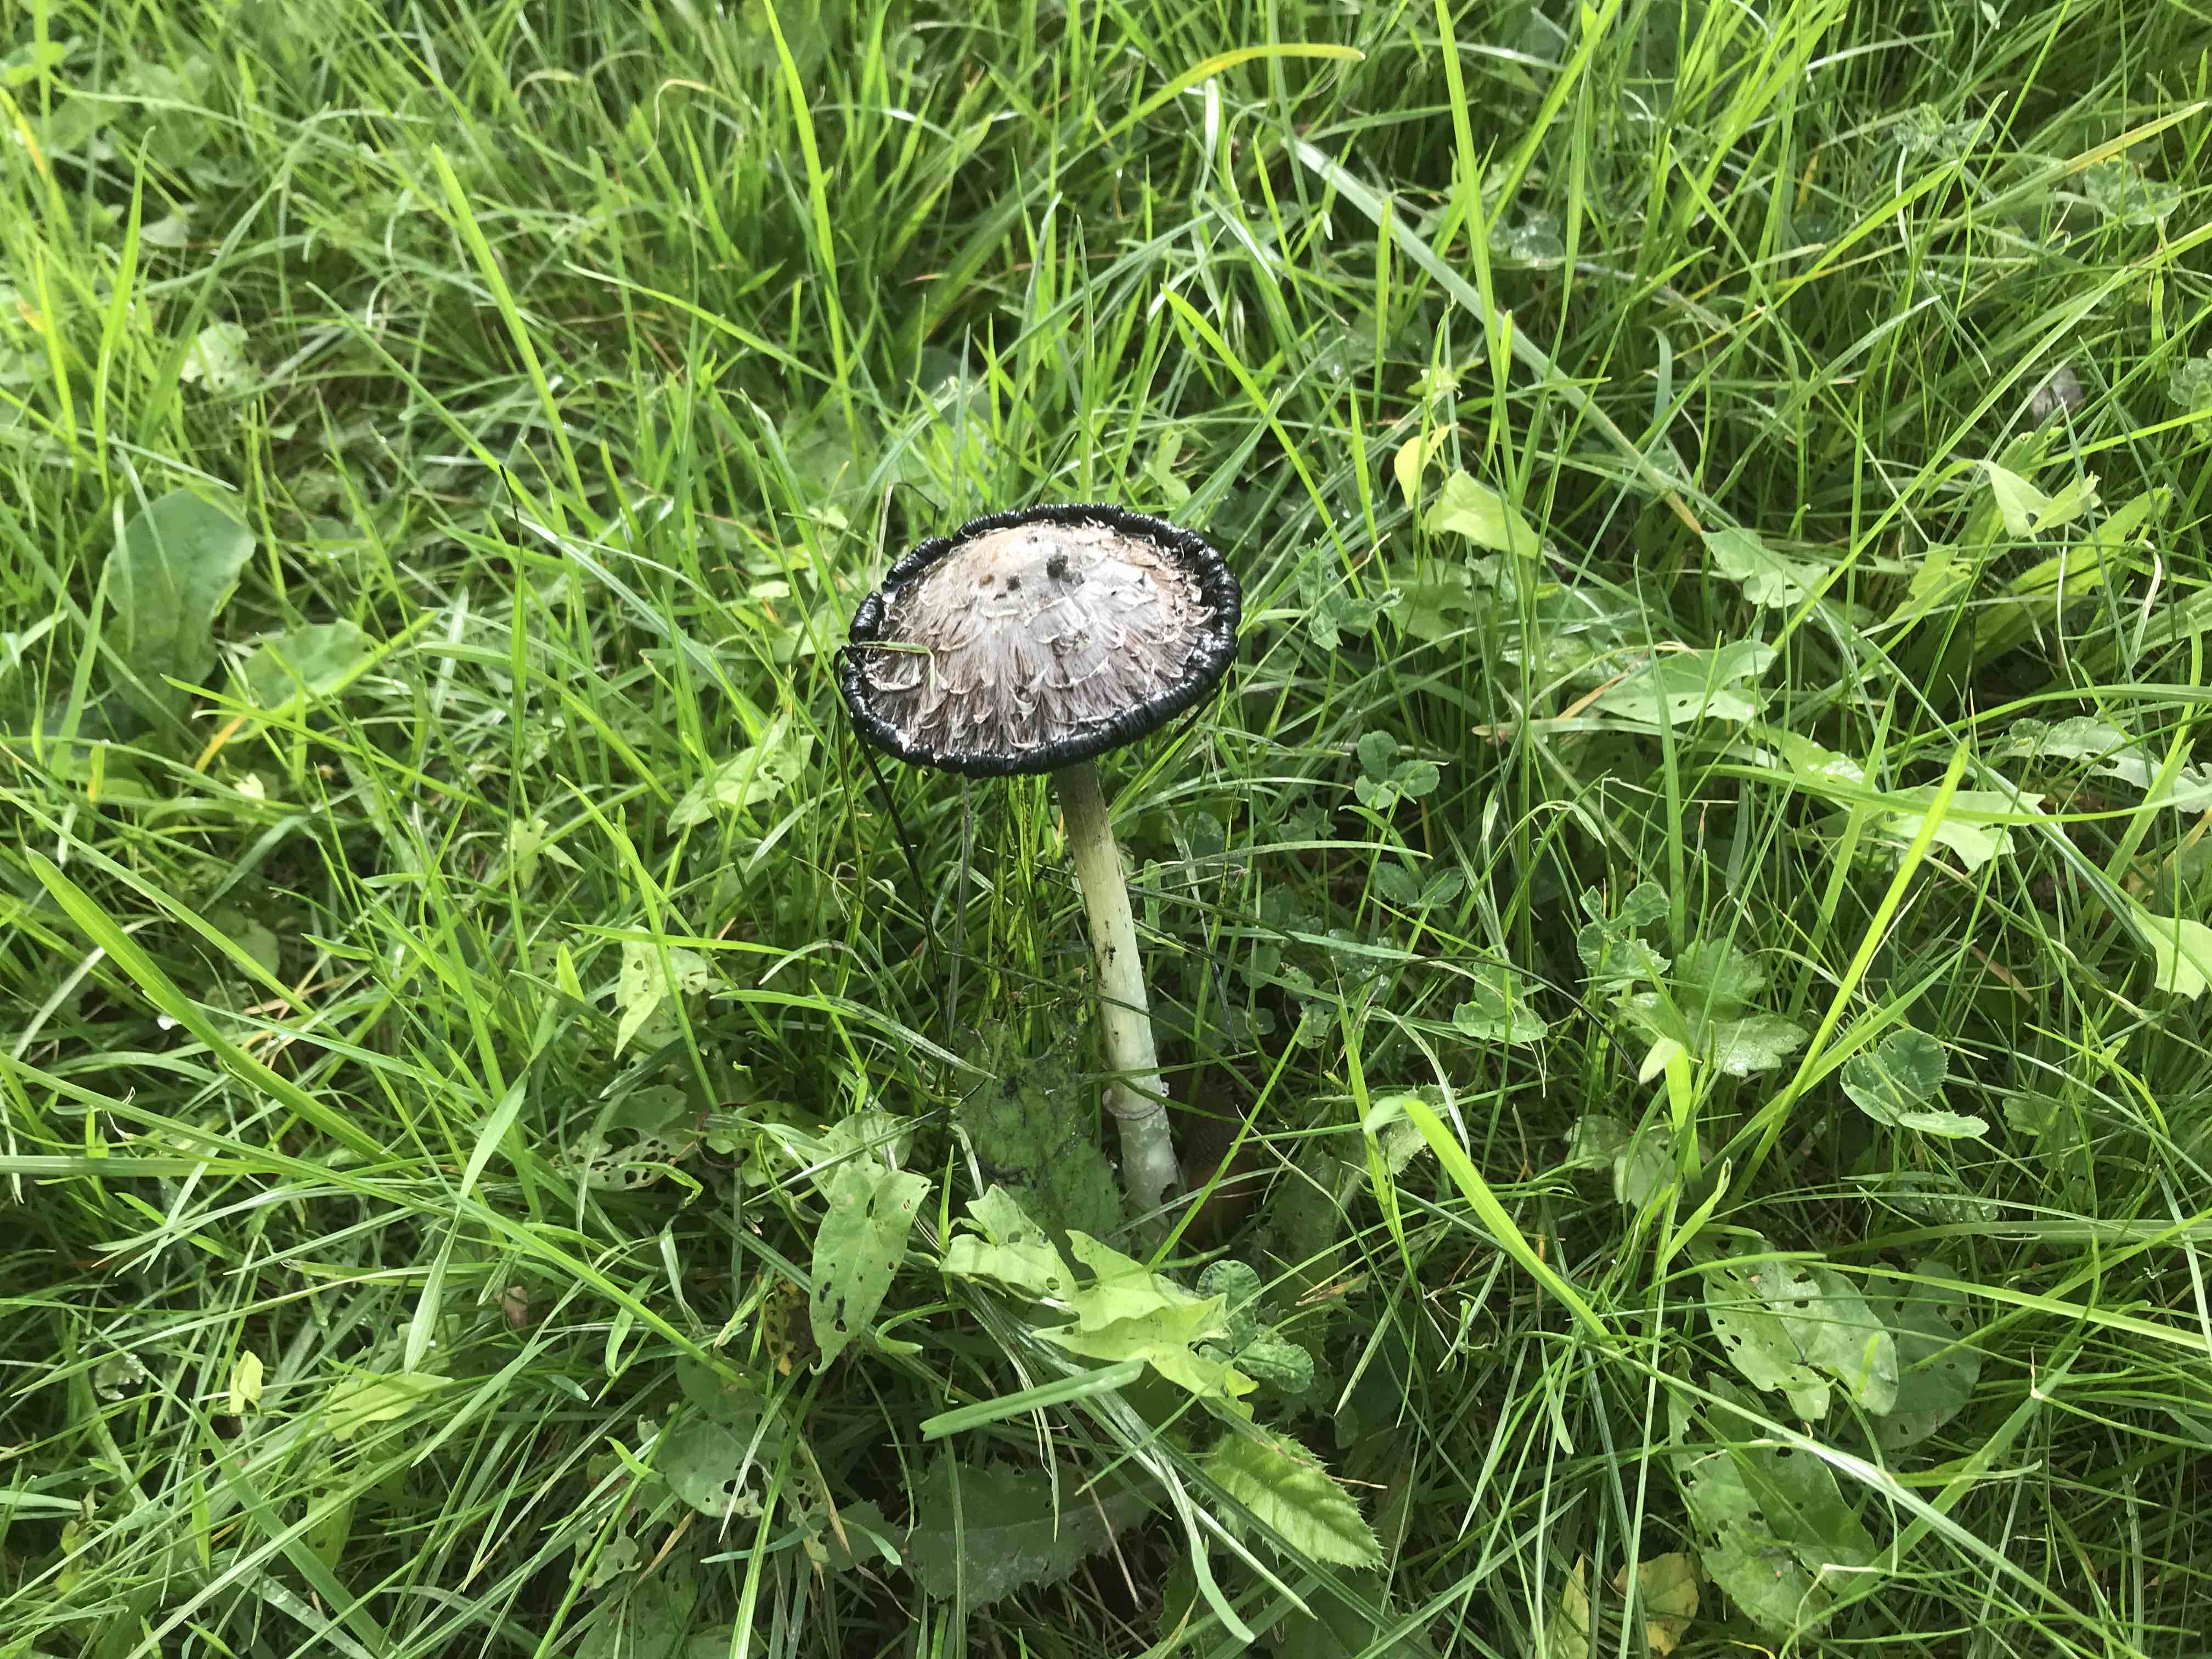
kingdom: Fungi
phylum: Basidiomycota
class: Agaricomycetes
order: Agaricales
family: Agaricaceae
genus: Coprinus
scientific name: Coprinus comatus
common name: stor parykhat
